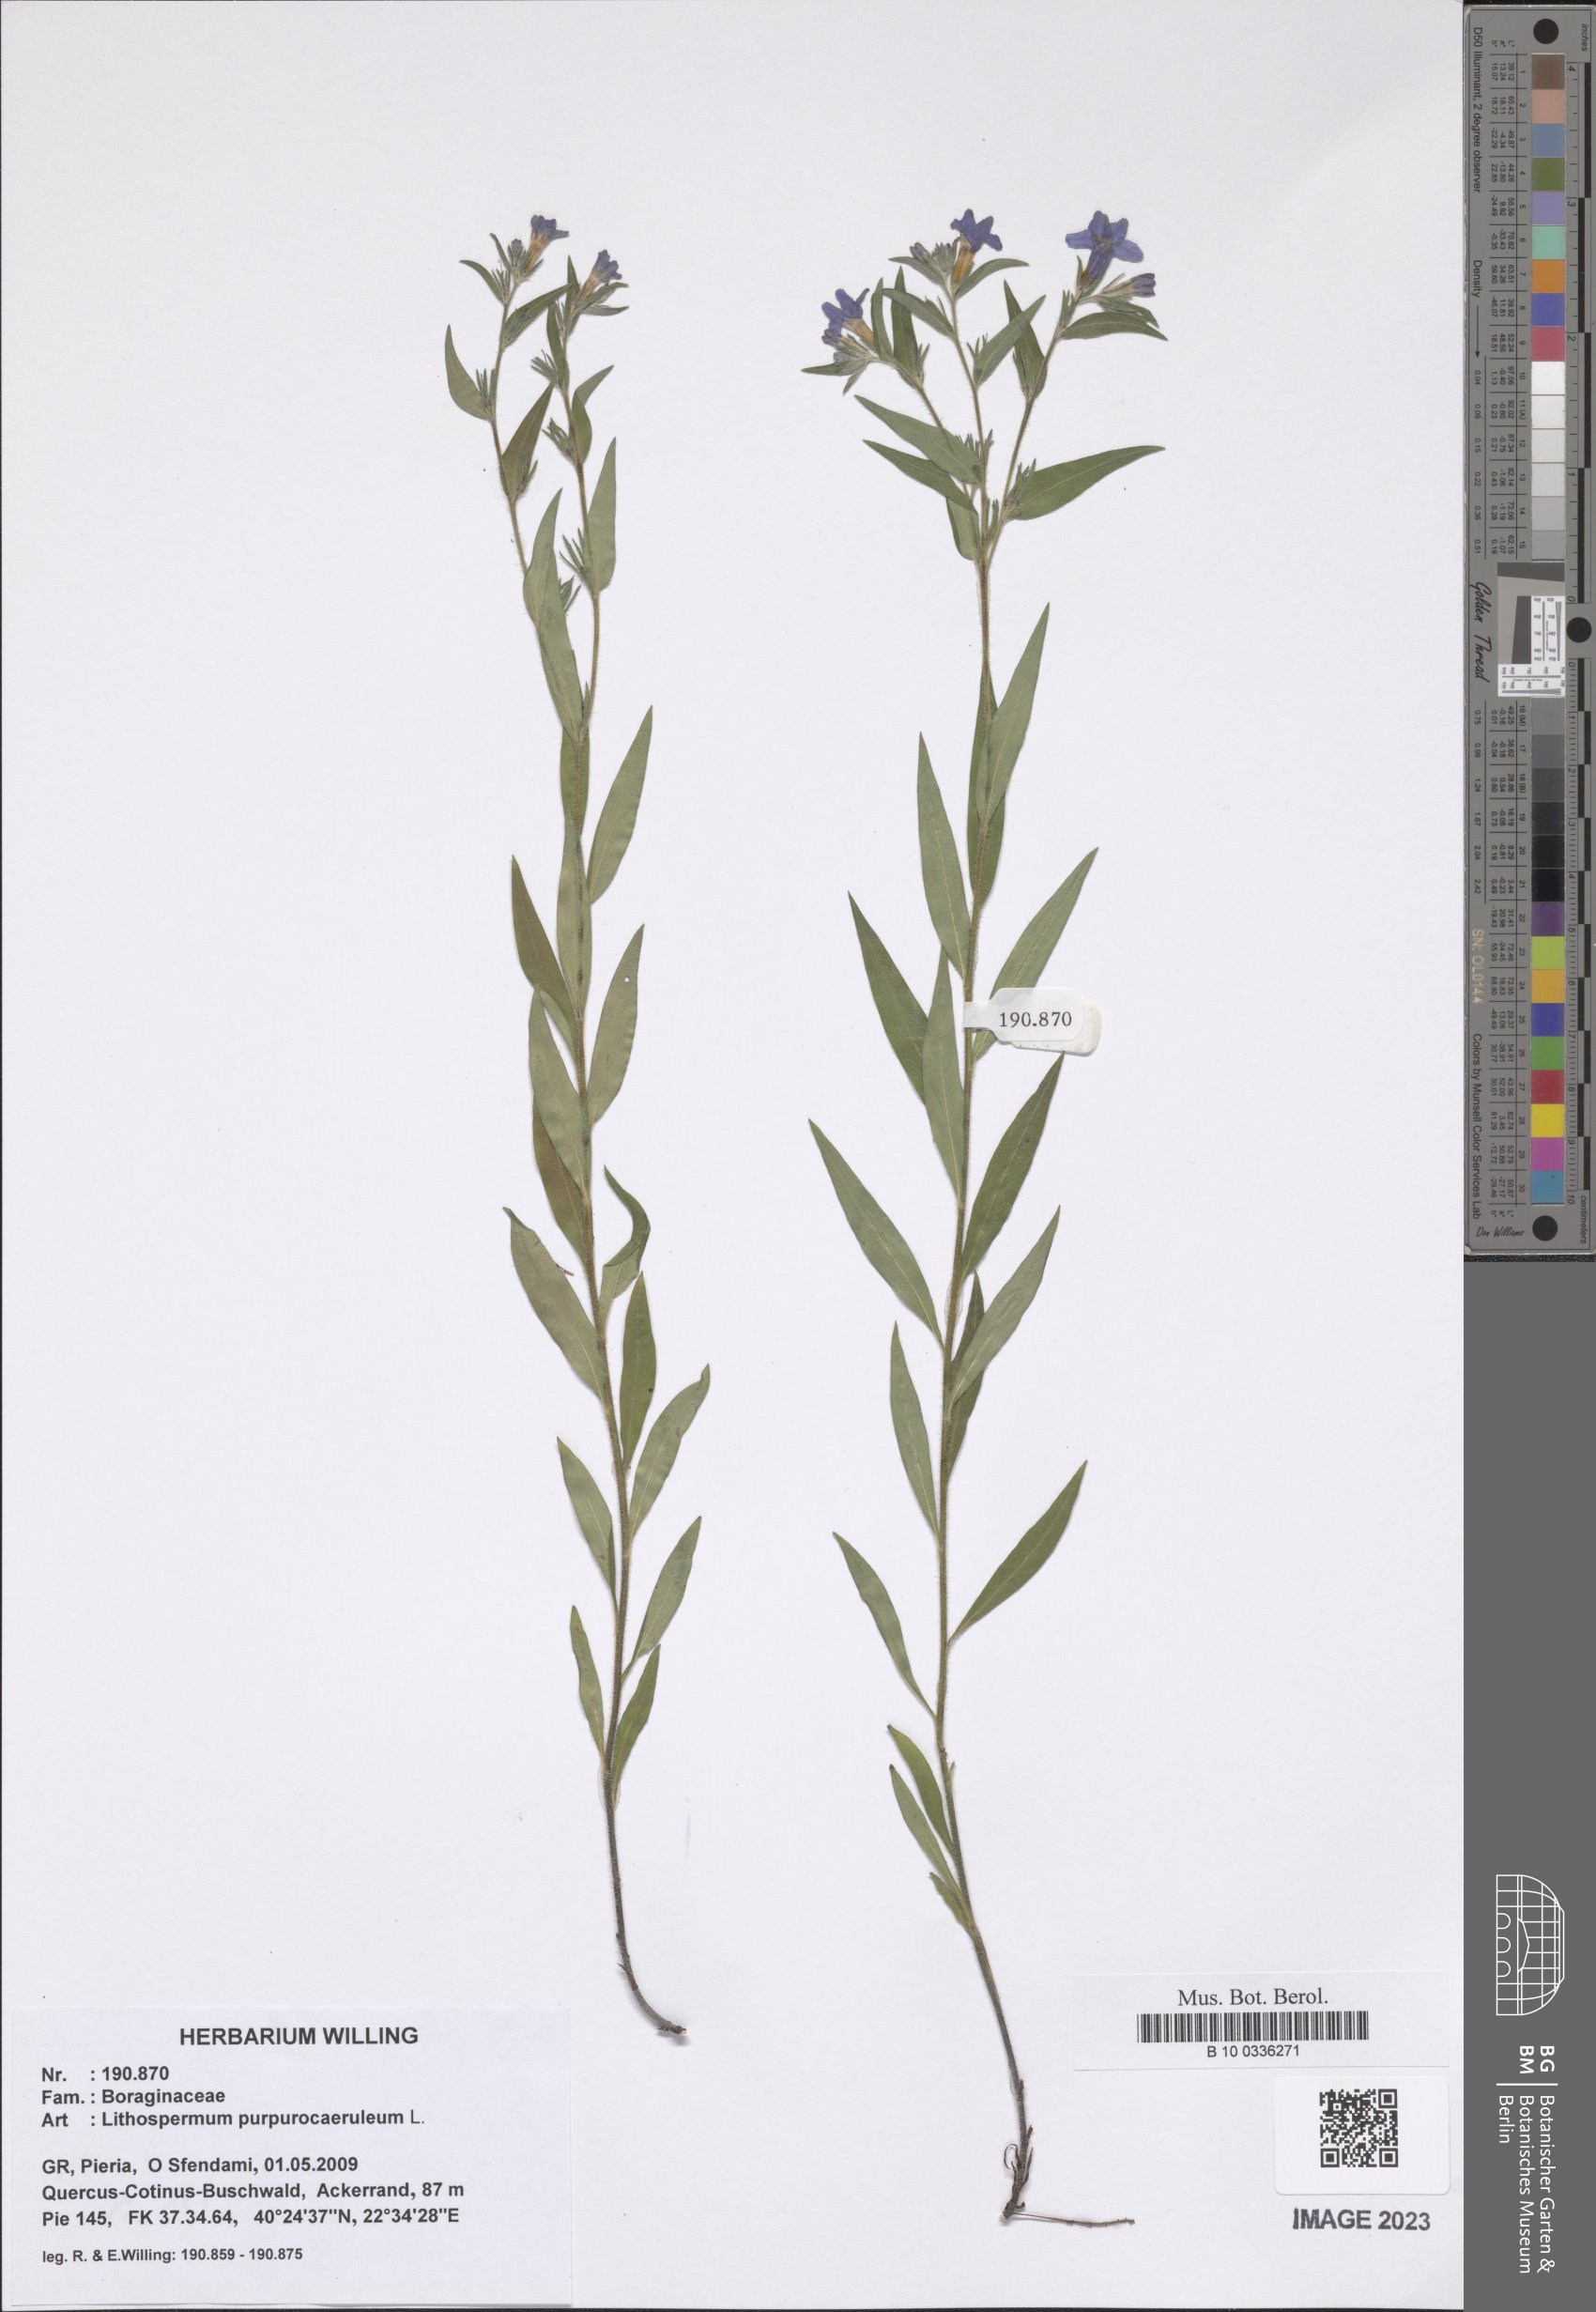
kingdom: Plantae
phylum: Tracheophyta
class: Magnoliopsida
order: Boraginales
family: Boraginaceae
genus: Aegonychon
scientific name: Aegonychon purpurocaeruleum
